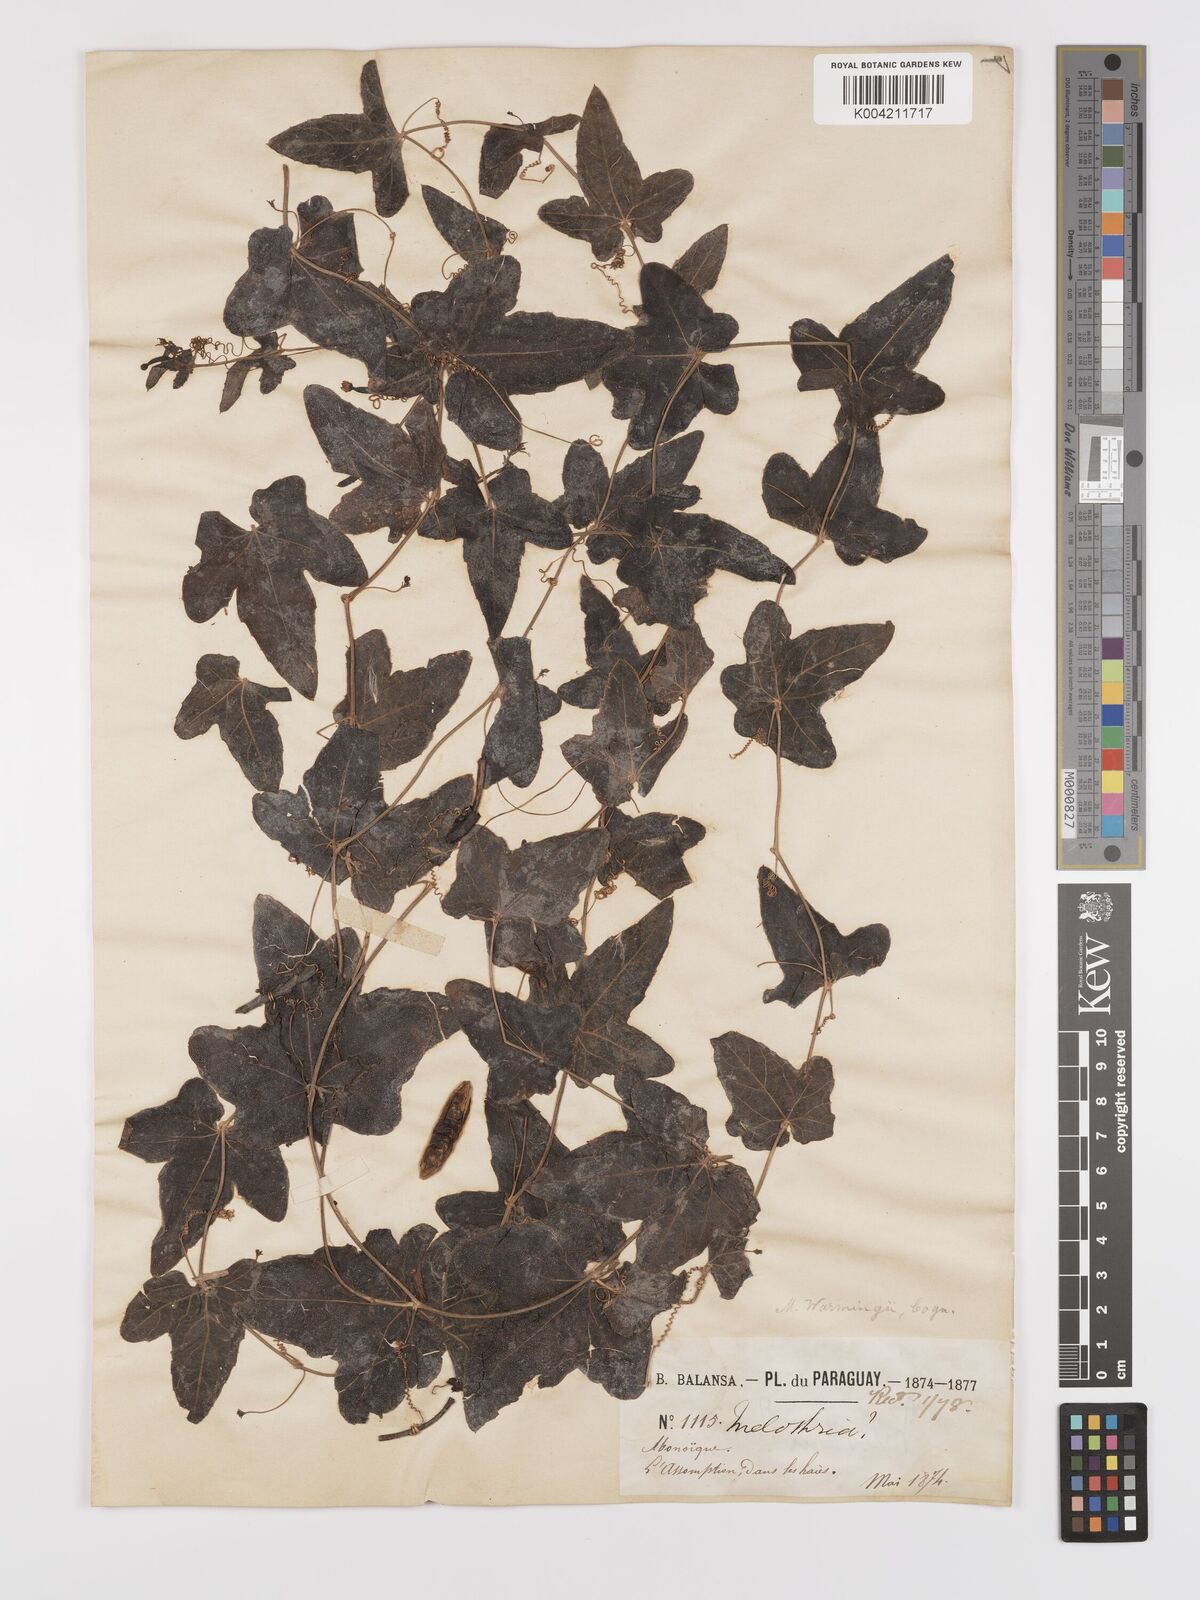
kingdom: Plantae
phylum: Tracheophyta
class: Magnoliopsida
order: Cucurbitales
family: Cucurbitaceae
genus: Melothria
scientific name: Melothria warmingii
